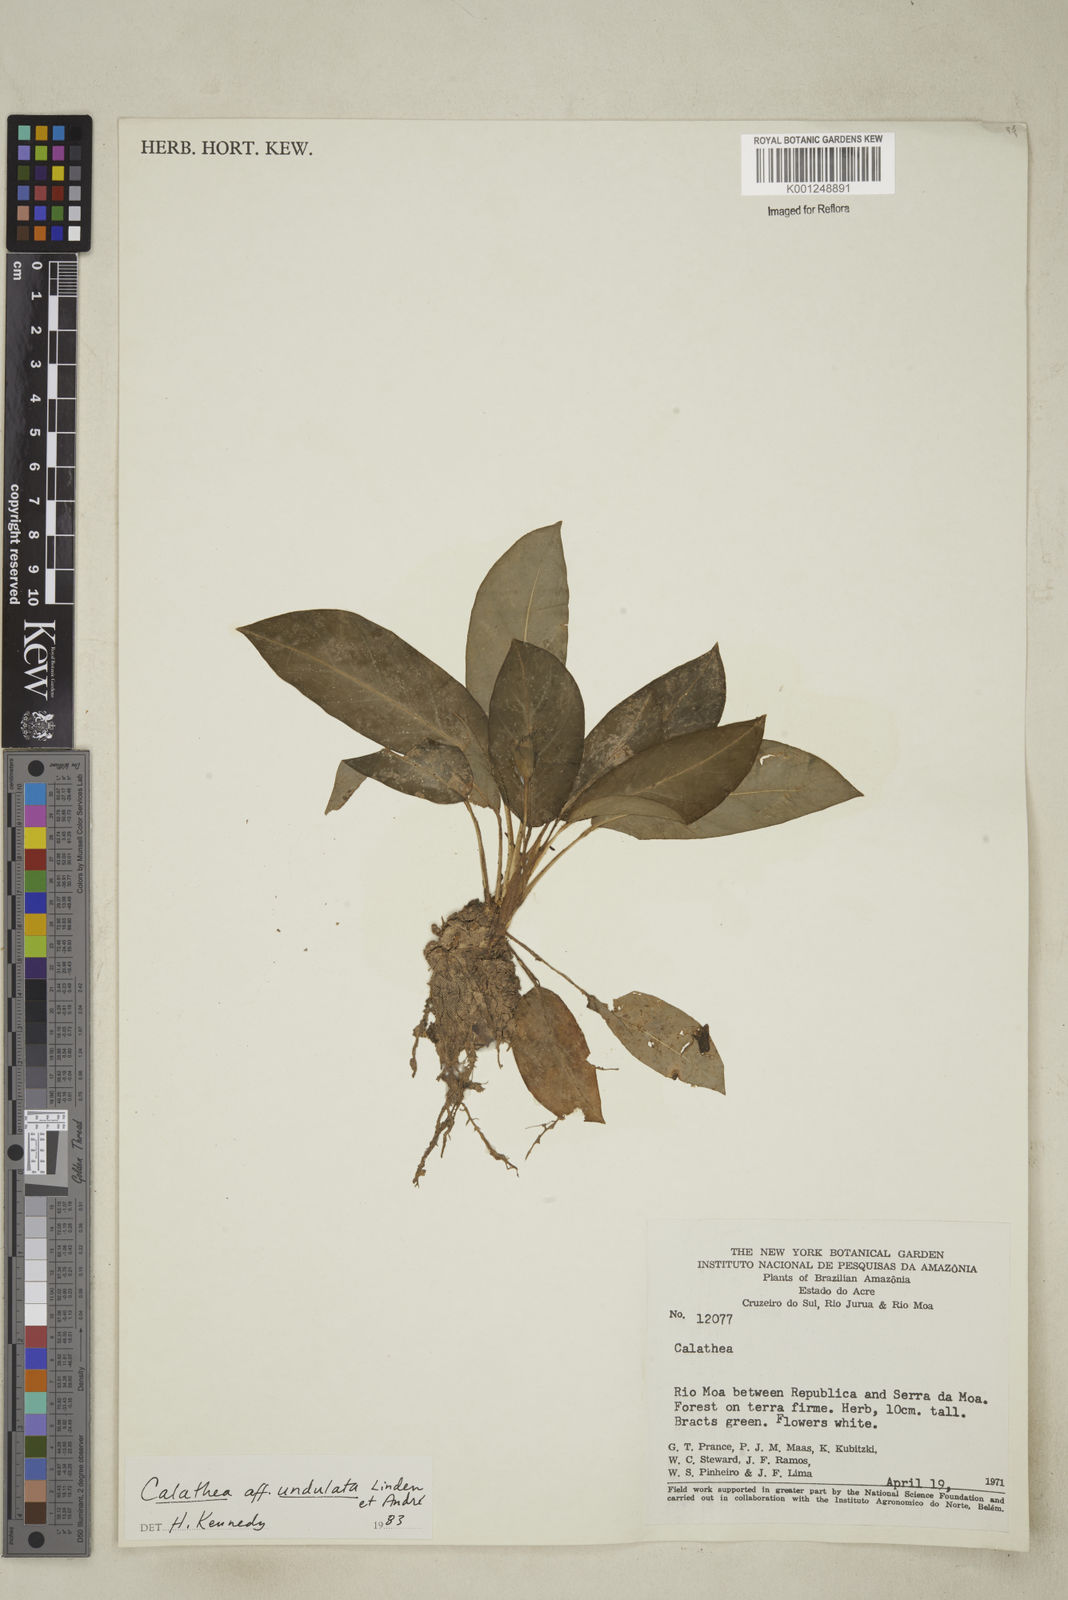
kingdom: Plantae
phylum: Tracheophyta
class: Liliopsida
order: Zingiberales
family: Marantaceae
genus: Goeppertia
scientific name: Goeppertia undulata
